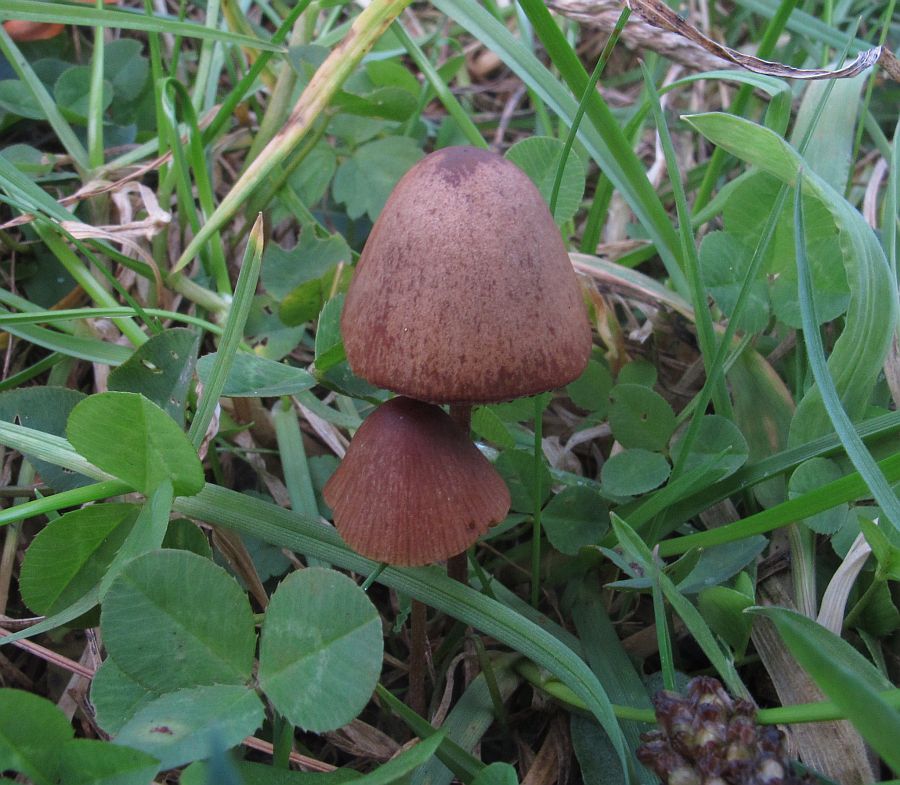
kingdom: Fungi
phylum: Basidiomycota
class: Agaricomycetes
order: Agaricales
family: Bolbitiaceae
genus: Conocybe
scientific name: Conocybe
